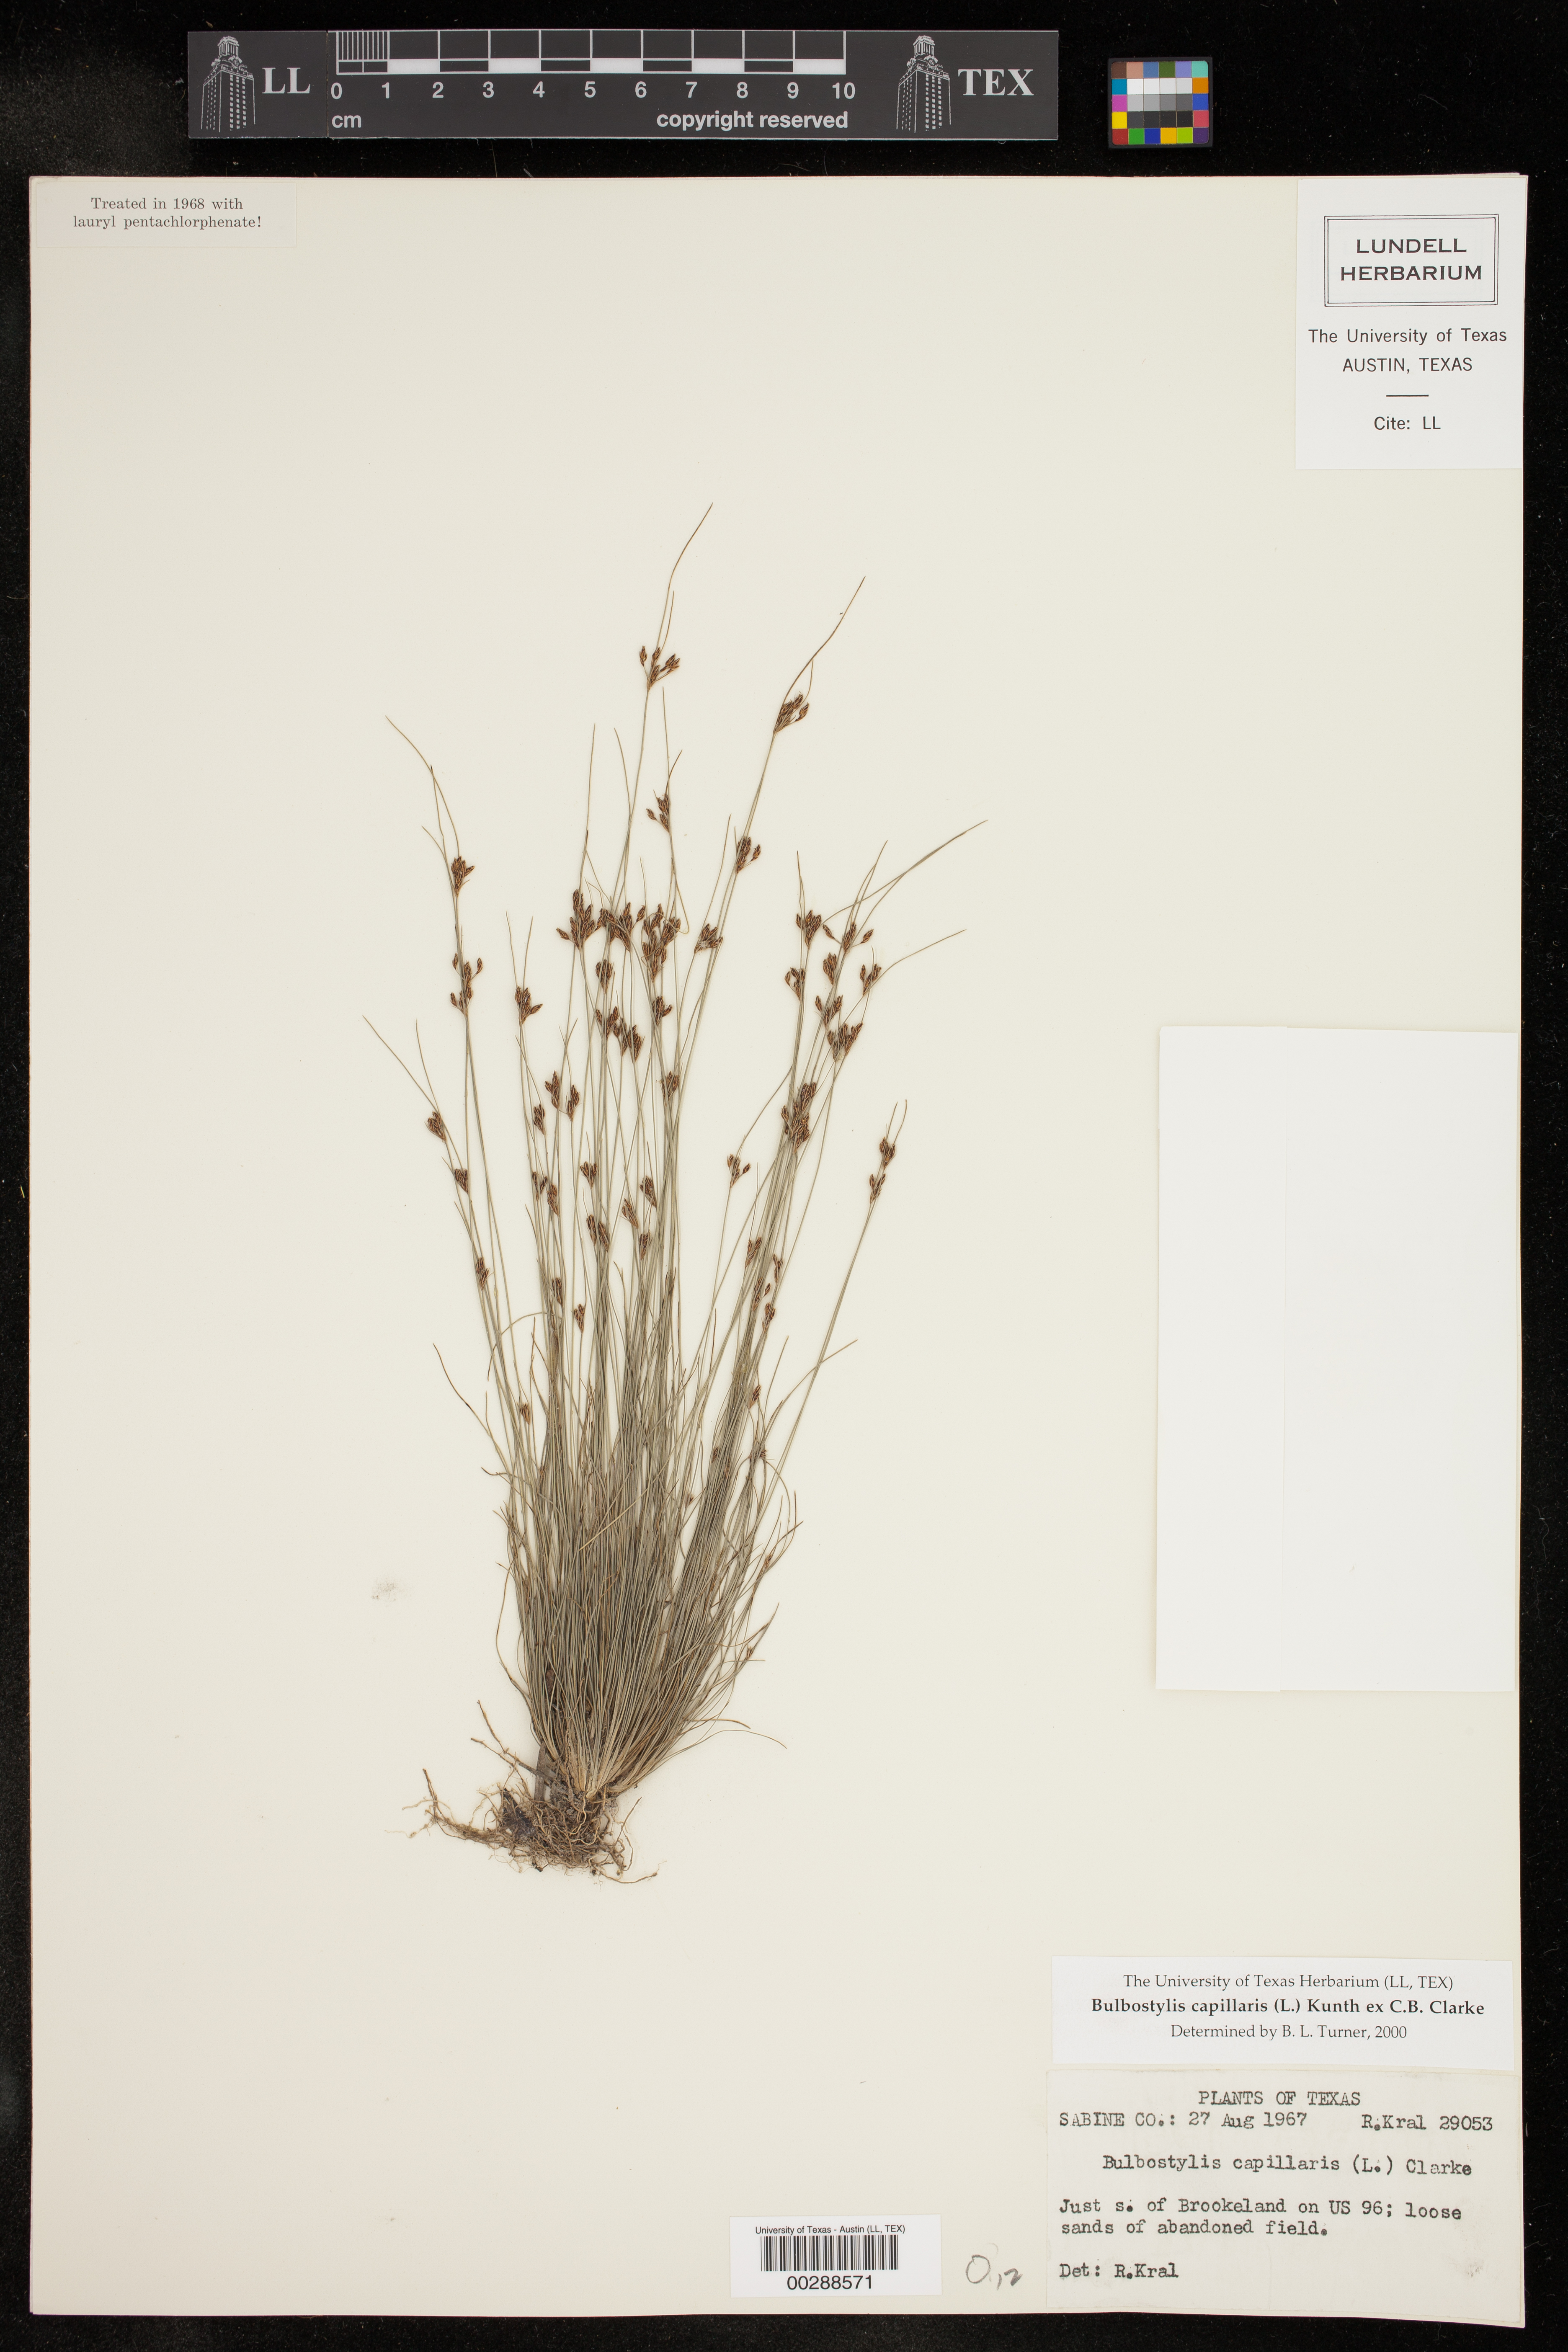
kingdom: Plantae
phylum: Tracheophyta
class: Liliopsida
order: Poales
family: Cyperaceae
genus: Bulbostylis
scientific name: Bulbostylis capillaris
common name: Densetuft hairsedge
